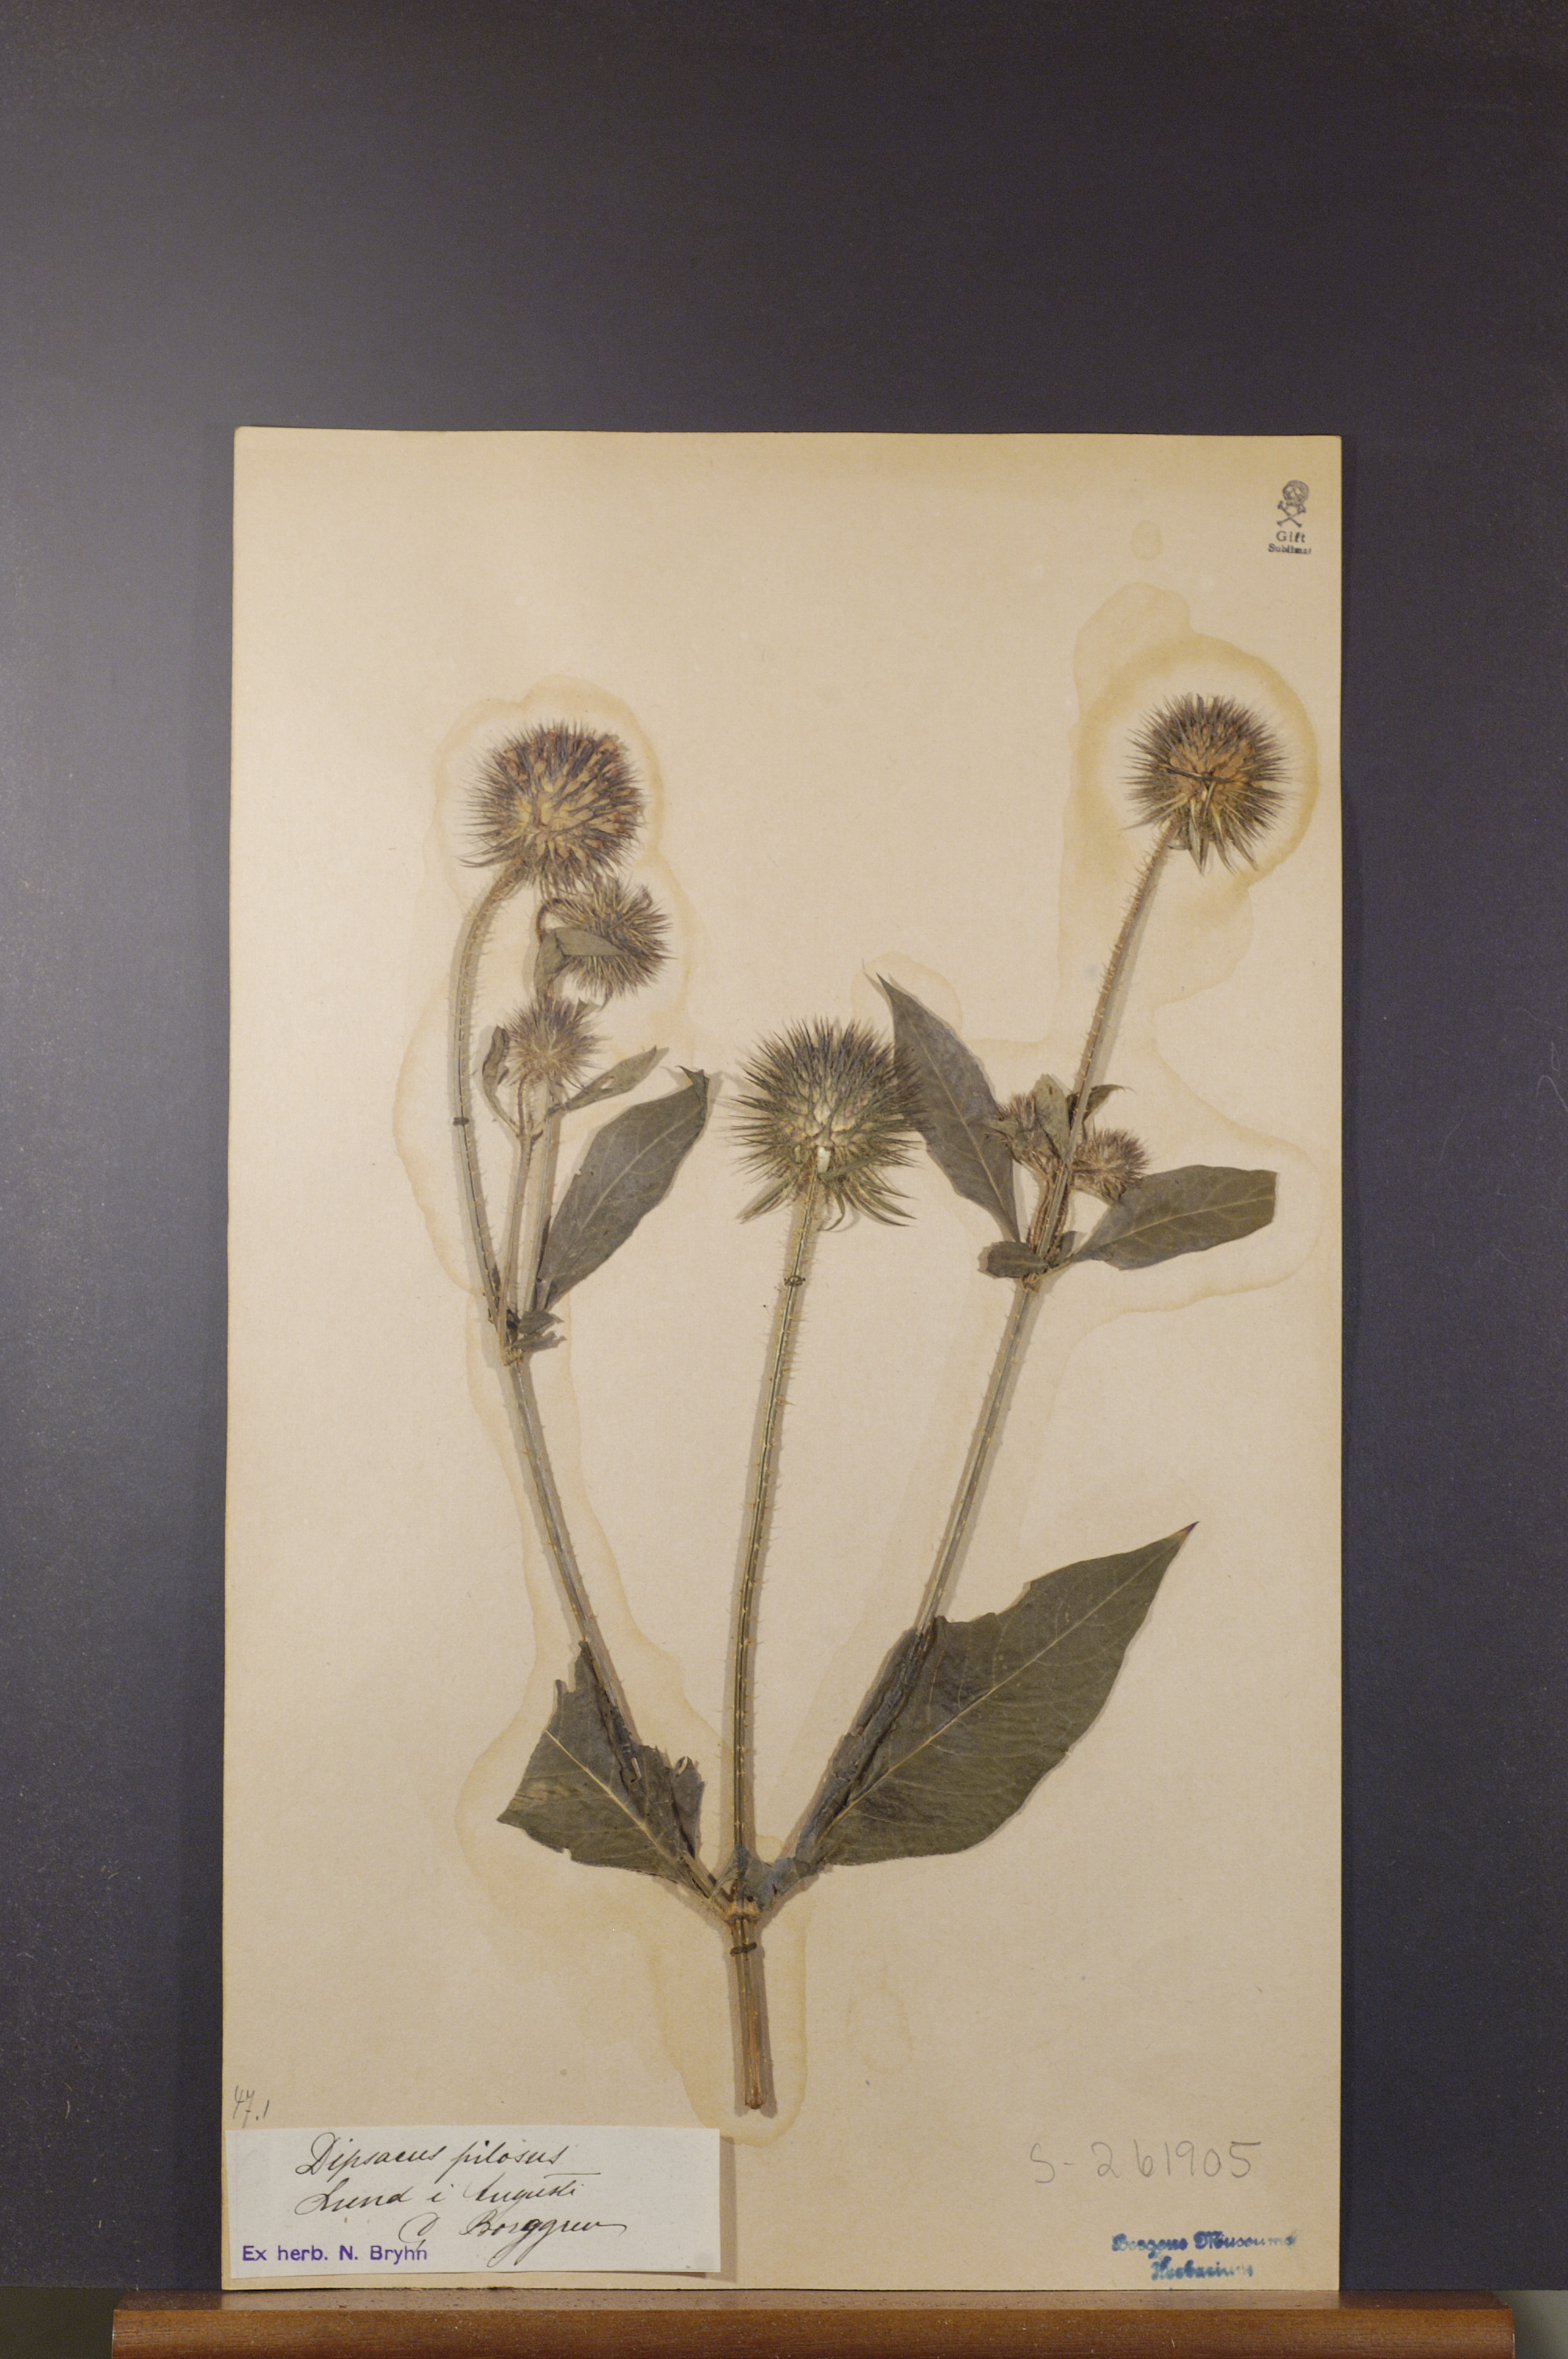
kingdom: Plantae
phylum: Tracheophyta
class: Magnoliopsida
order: Dipsacales
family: Caprifoliaceae
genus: Dipsacus
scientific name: Dipsacus pilosus
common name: Small teasel
